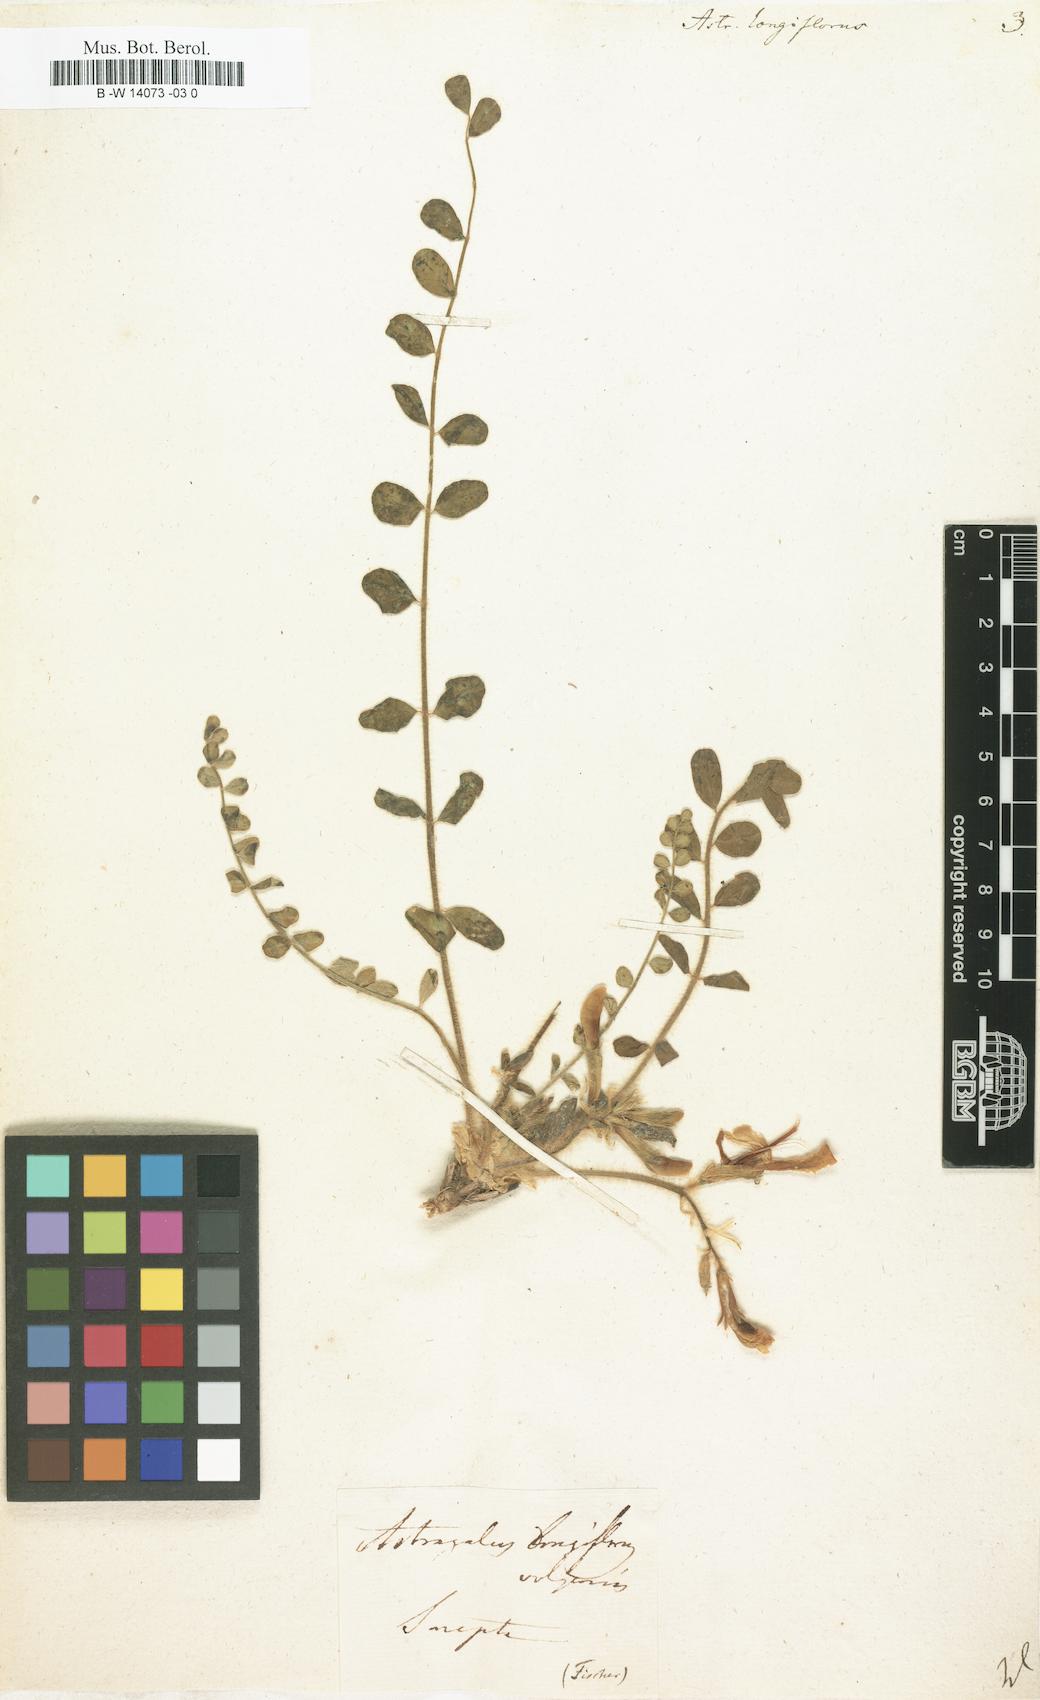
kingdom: Plantae
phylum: Tracheophyta
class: Magnoliopsida
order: Fabales
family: Fabaceae
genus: Astragalus
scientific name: Astragalus
